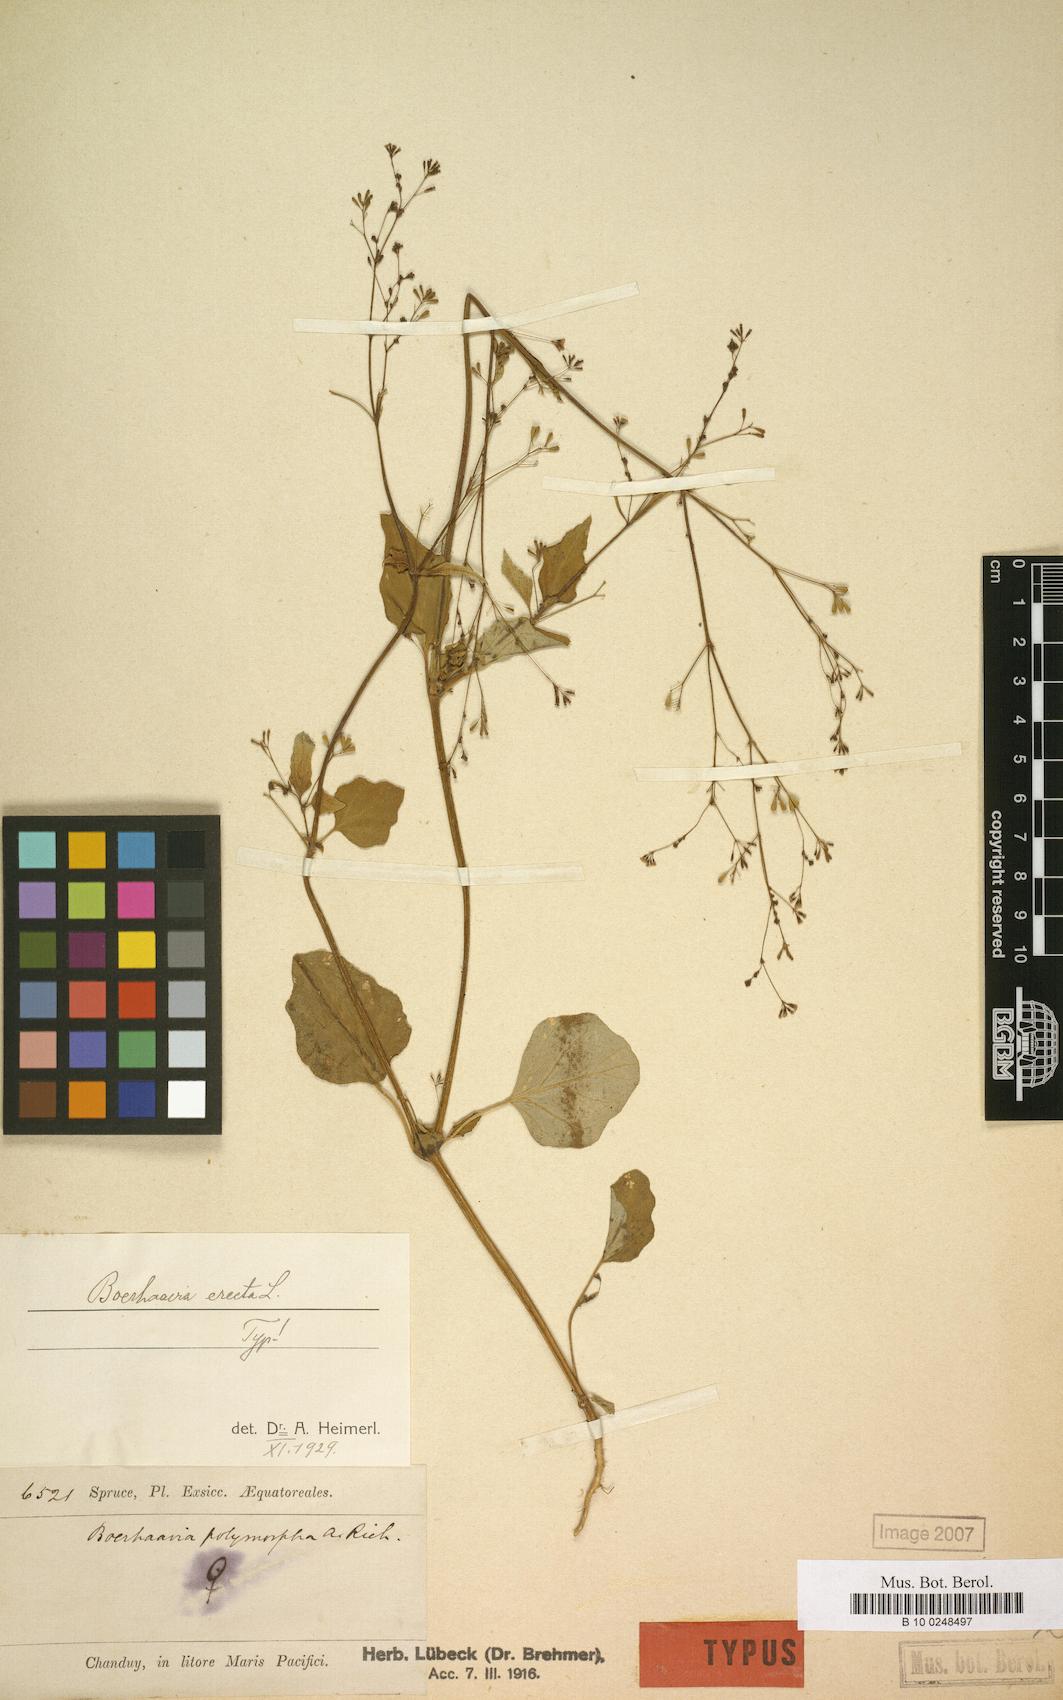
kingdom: Plantae
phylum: Tracheophyta
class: Magnoliopsida
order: Caryophyllales
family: Nyctaginaceae
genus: Boerhavia
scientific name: Boerhavia erecta
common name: Erect spiderling
